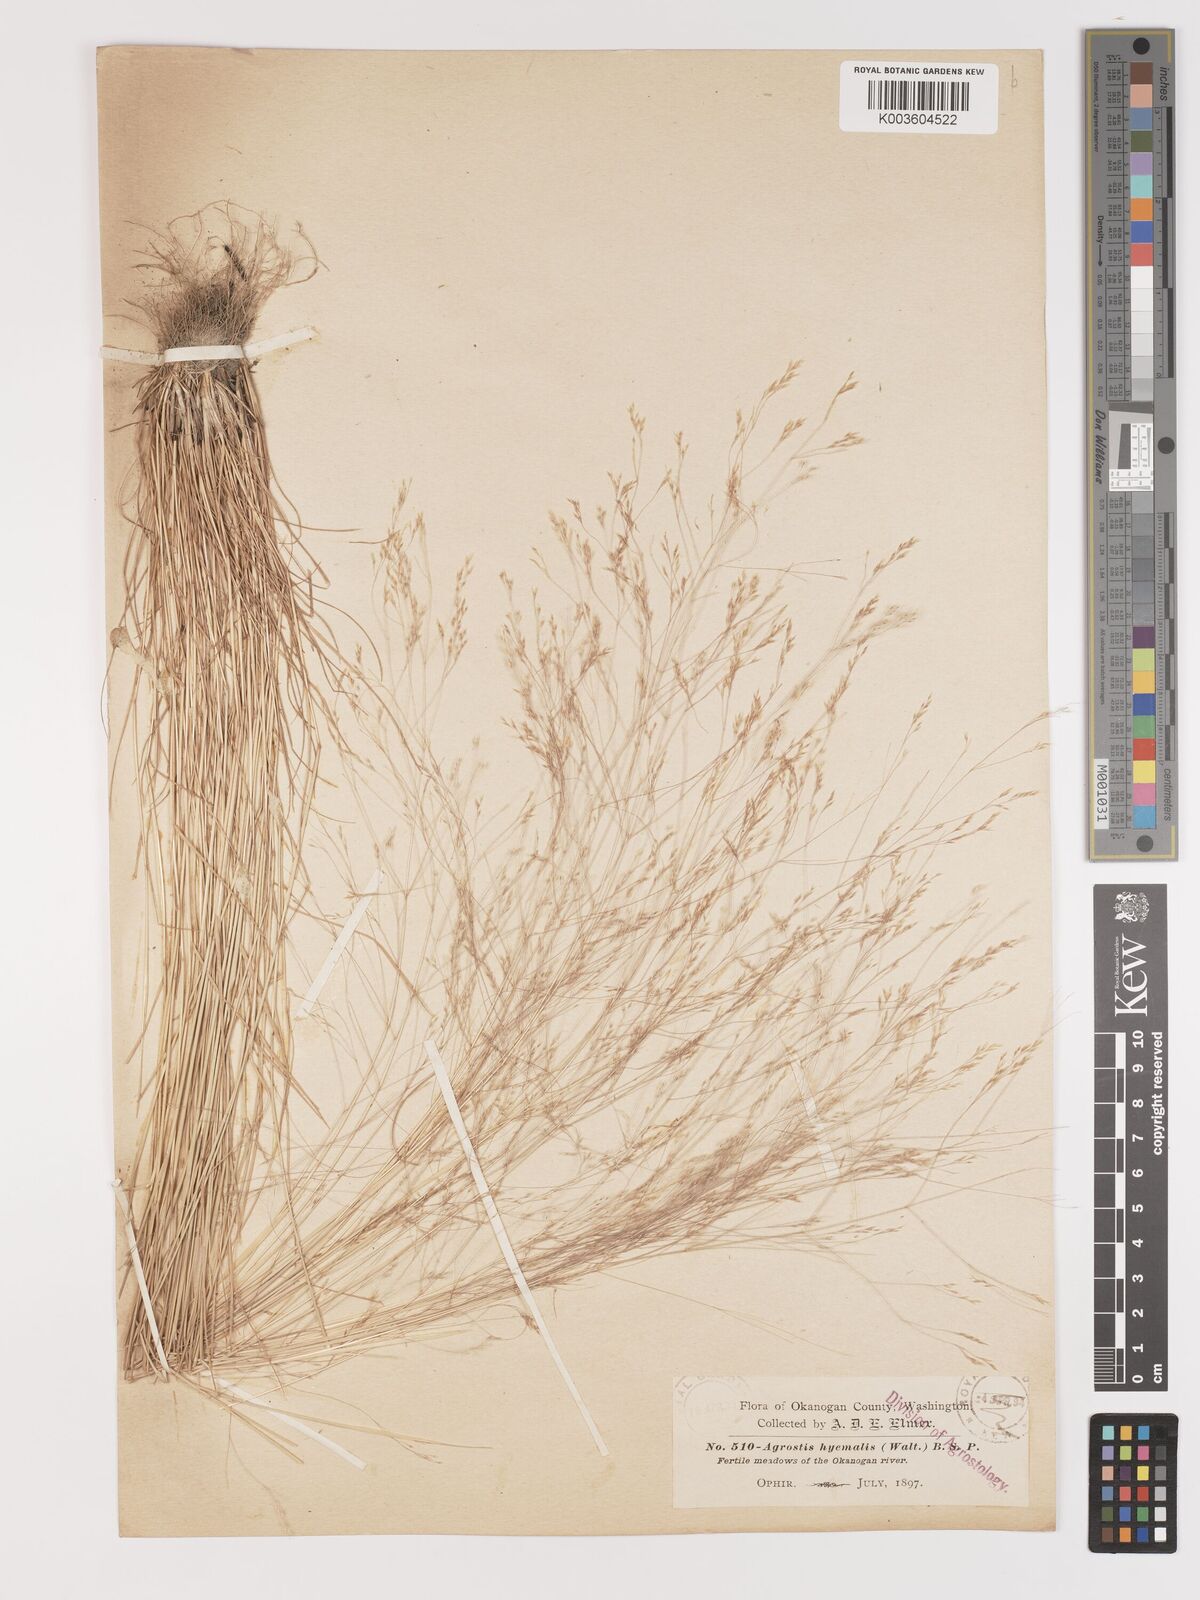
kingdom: Plantae
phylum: Tracheophyta
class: Liliopsida
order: Poales
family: Poaceae
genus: Agrostis
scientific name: Agrostis hyemalis
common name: Small bent
